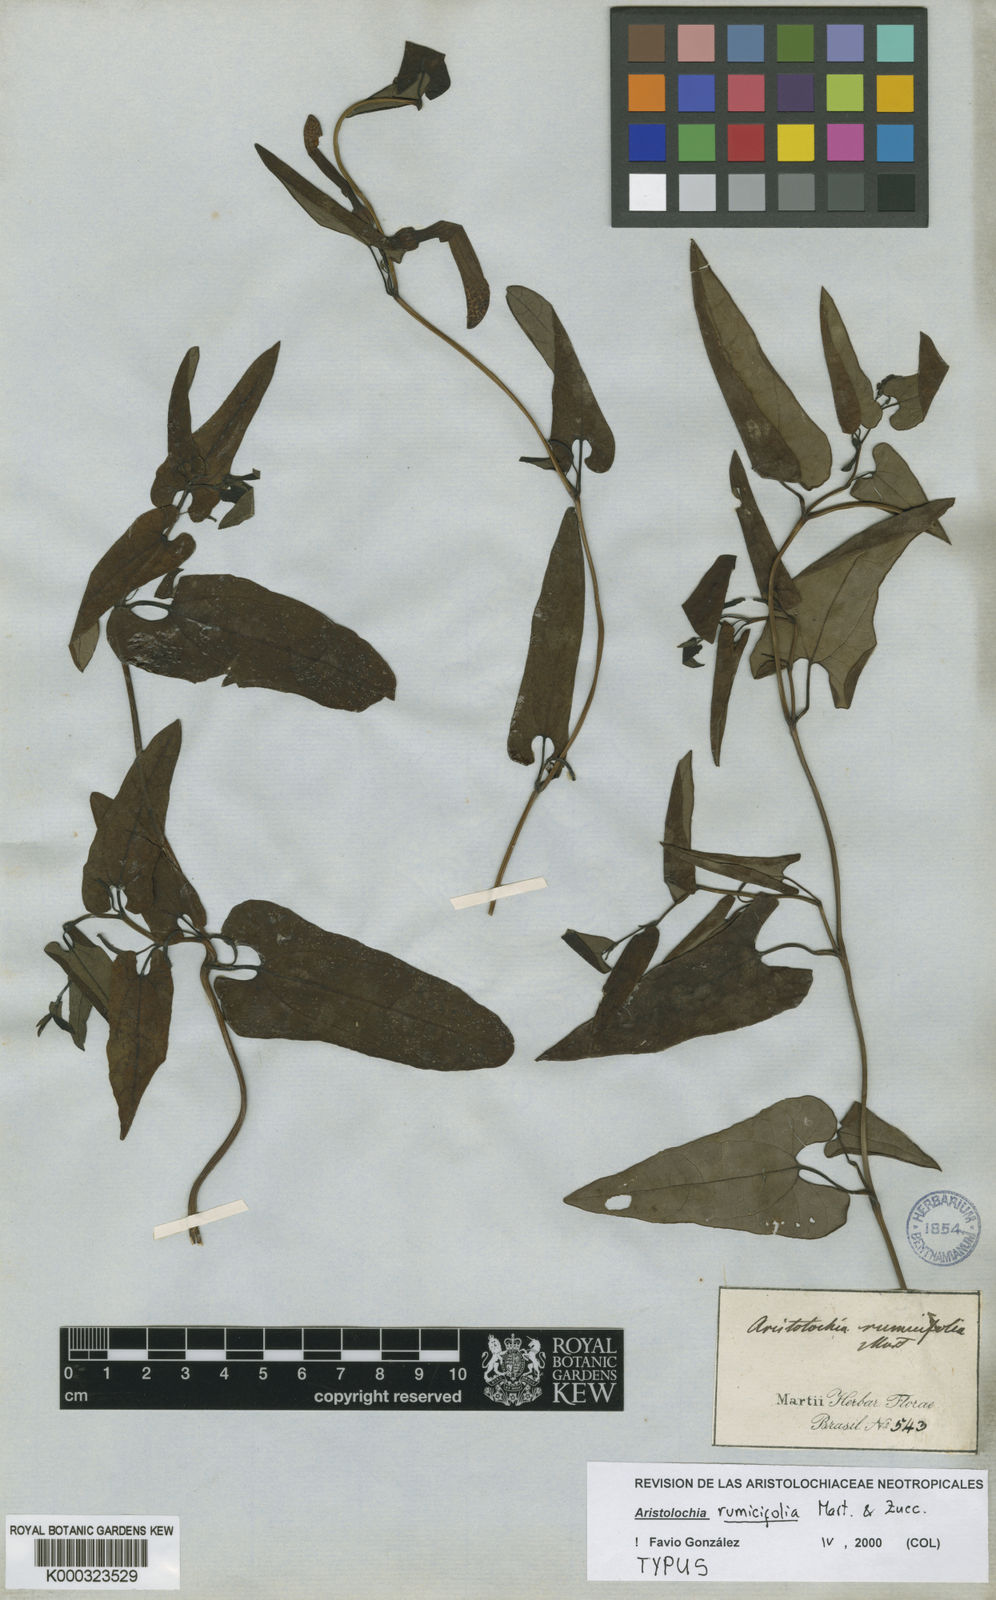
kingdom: Plantae
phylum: Tracheophyta
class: Magnoliopsida
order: Piperales
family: Aristolochiaceae
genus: Aristolochia
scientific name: Aristolochia
